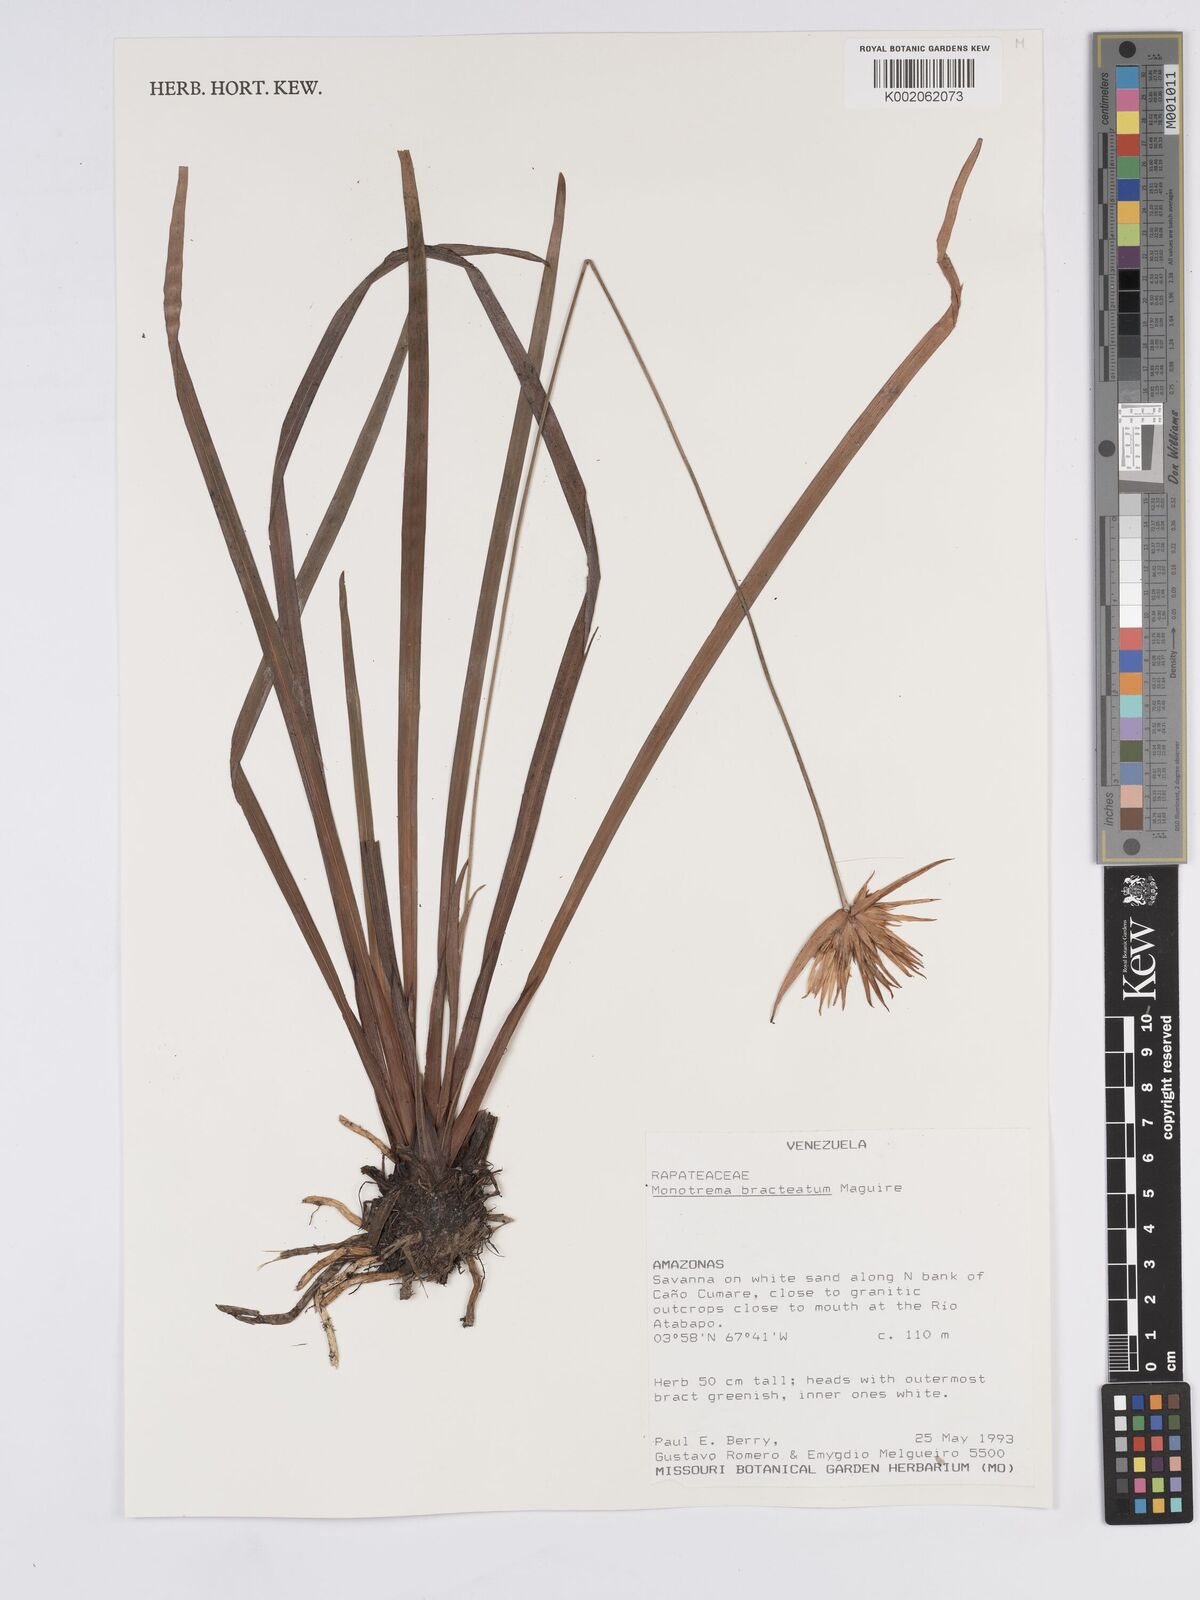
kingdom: Plantae
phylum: Tracheophyta
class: Liliopsida
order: Poales
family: Rapateaceae
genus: Monotrema
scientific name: Monotrema bracteatum
